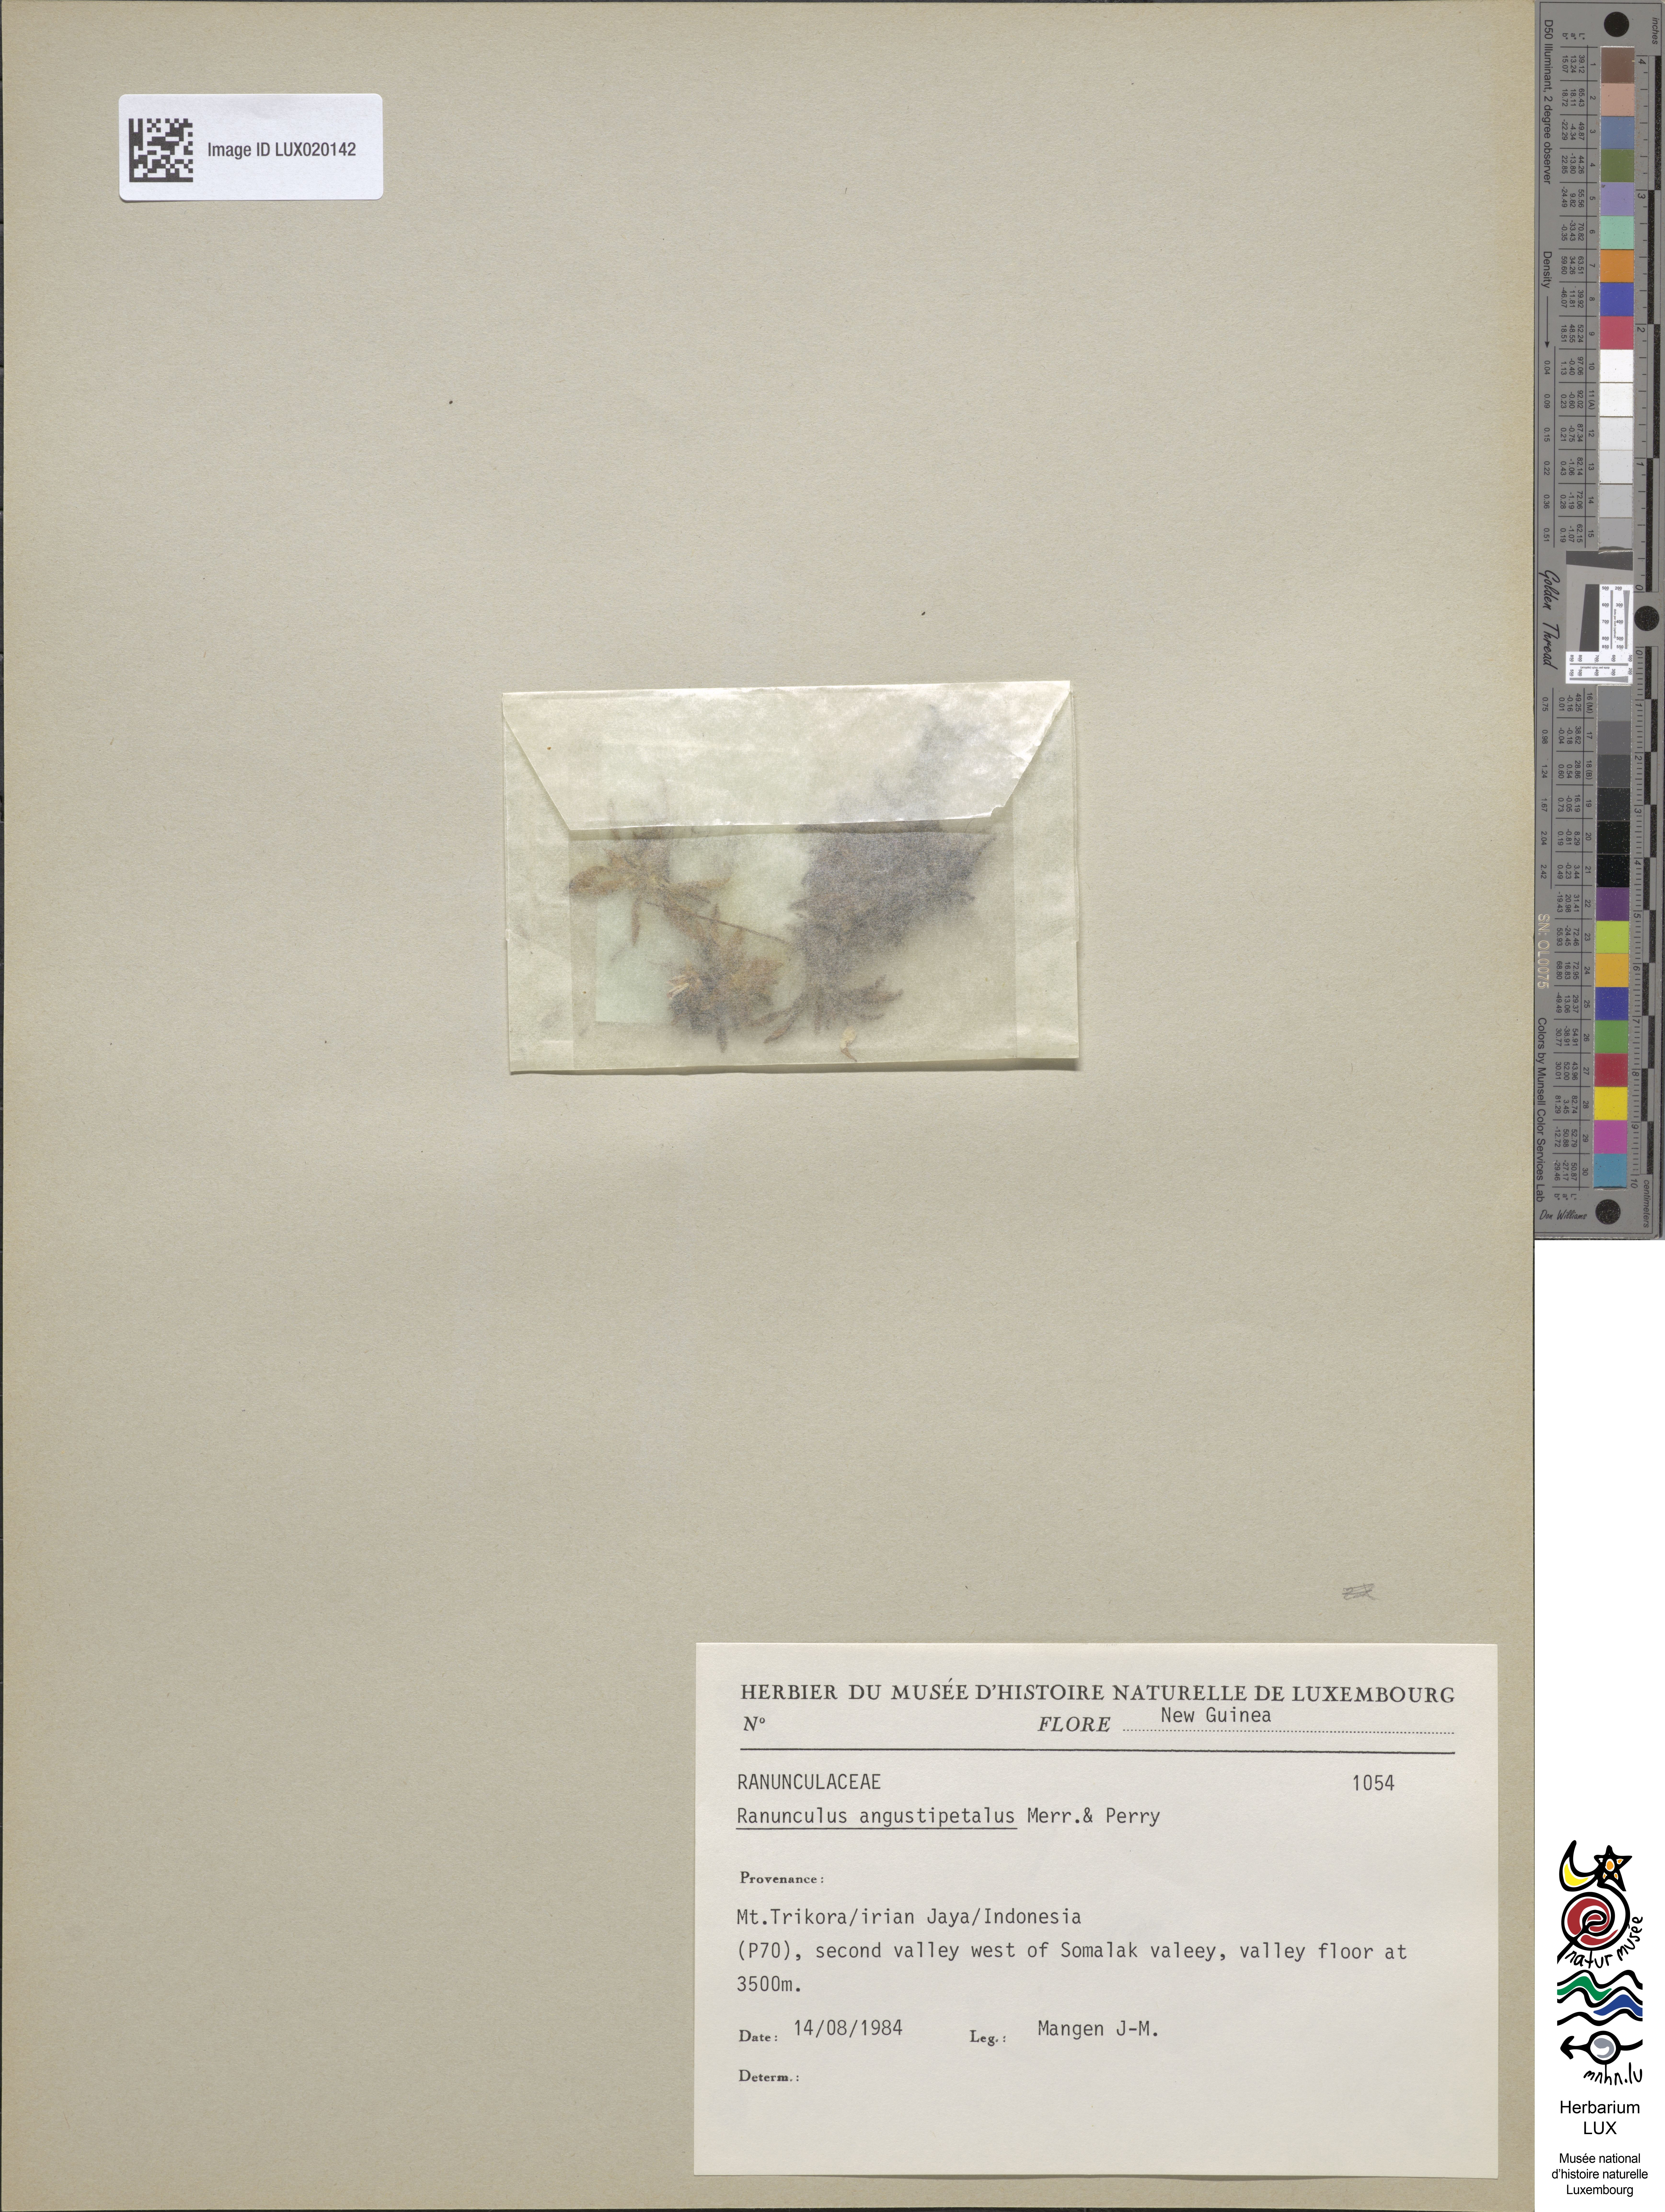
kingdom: Plantae
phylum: Tracheophyta
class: Magnoliopsida
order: Ranunculales
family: Ranunculaceae
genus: Ranunculus
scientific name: Ranunculus angustipetalus
